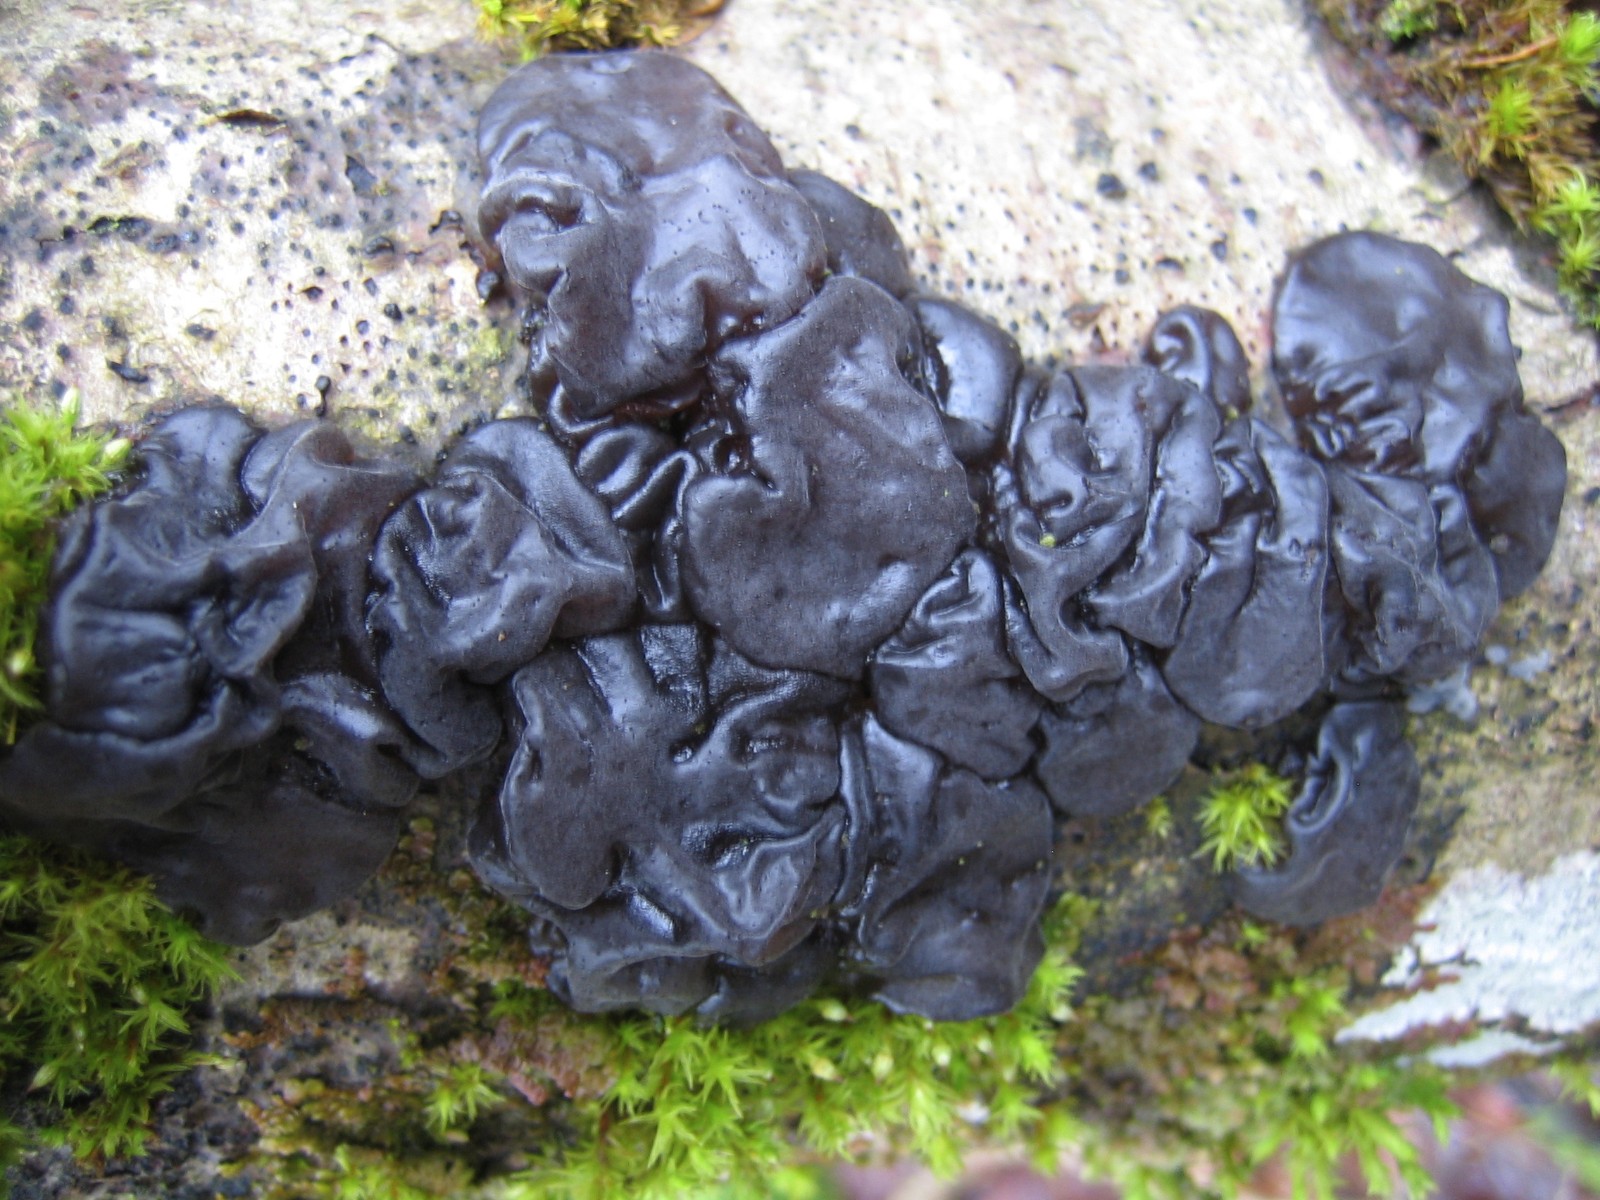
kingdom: Fungi
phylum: Basidiomycota
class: Agaricomycetes
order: Auriculariales
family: Auriculariaceae
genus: Exidia
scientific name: Exidia nigricans
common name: almindelig bævretop
